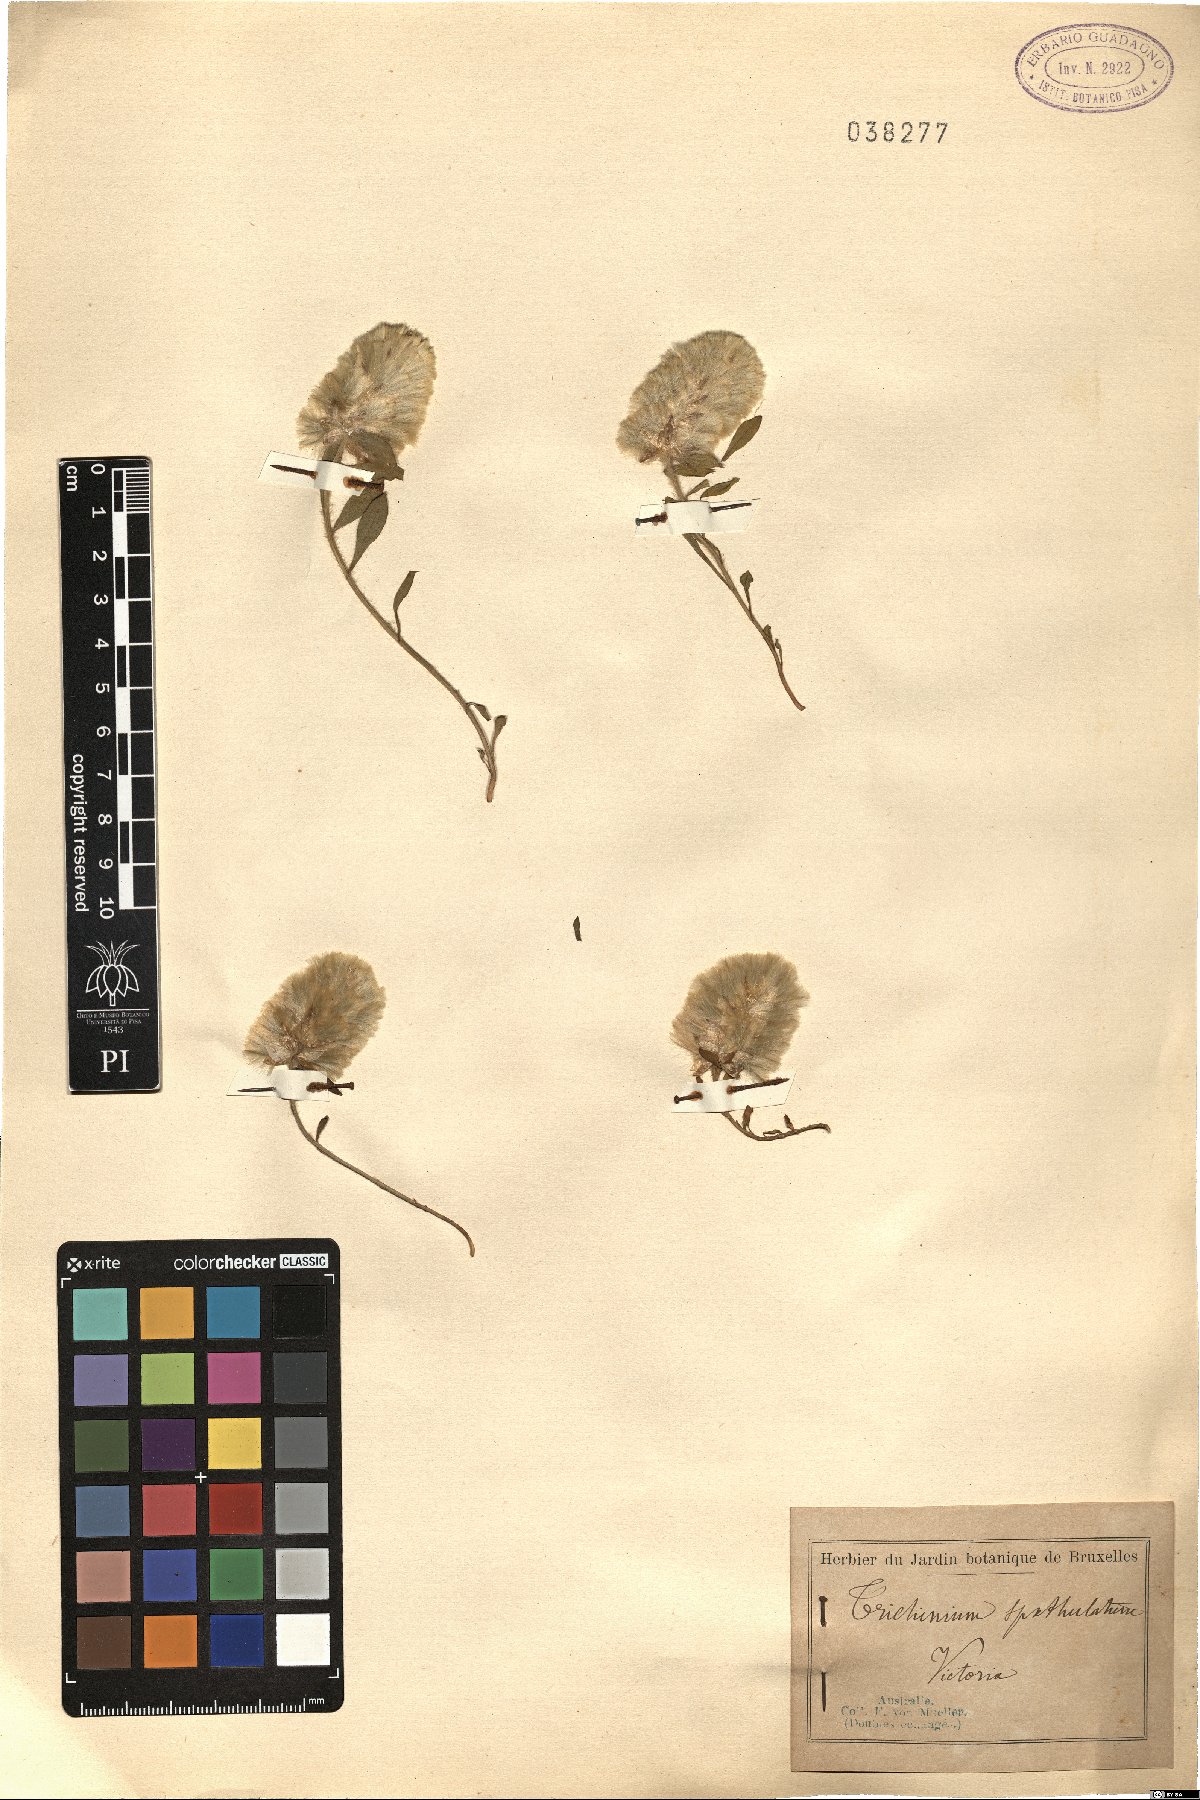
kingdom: Plantae
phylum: Tracheophyta
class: Magnoliopsida
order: Caryophyllales
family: Amaranthaceae
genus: Ptilotus
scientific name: Ptilotus spathulatus
